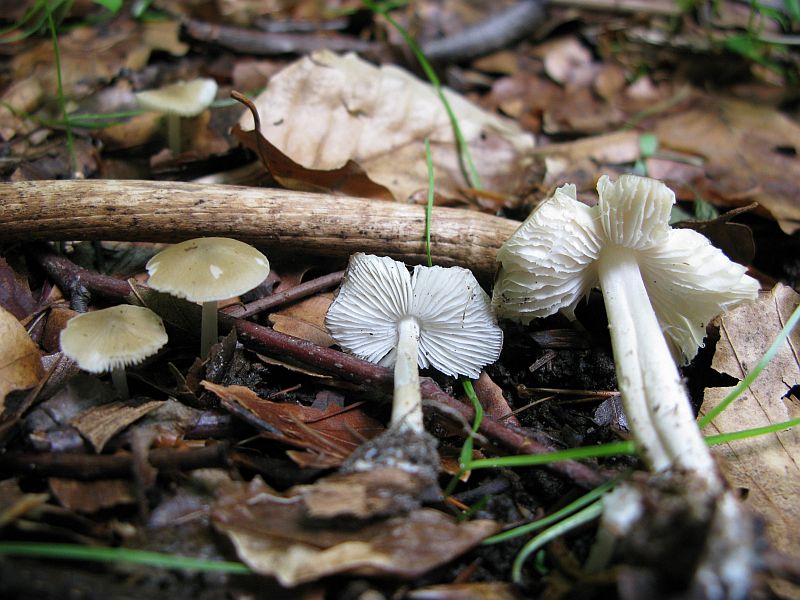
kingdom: Fungi
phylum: Basidiomycota
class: Agaricomycetes
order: Agaricales
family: Porotheleaceae
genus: Hydropodia
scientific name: Hydropodia subalpina
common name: vår-fnugfod
